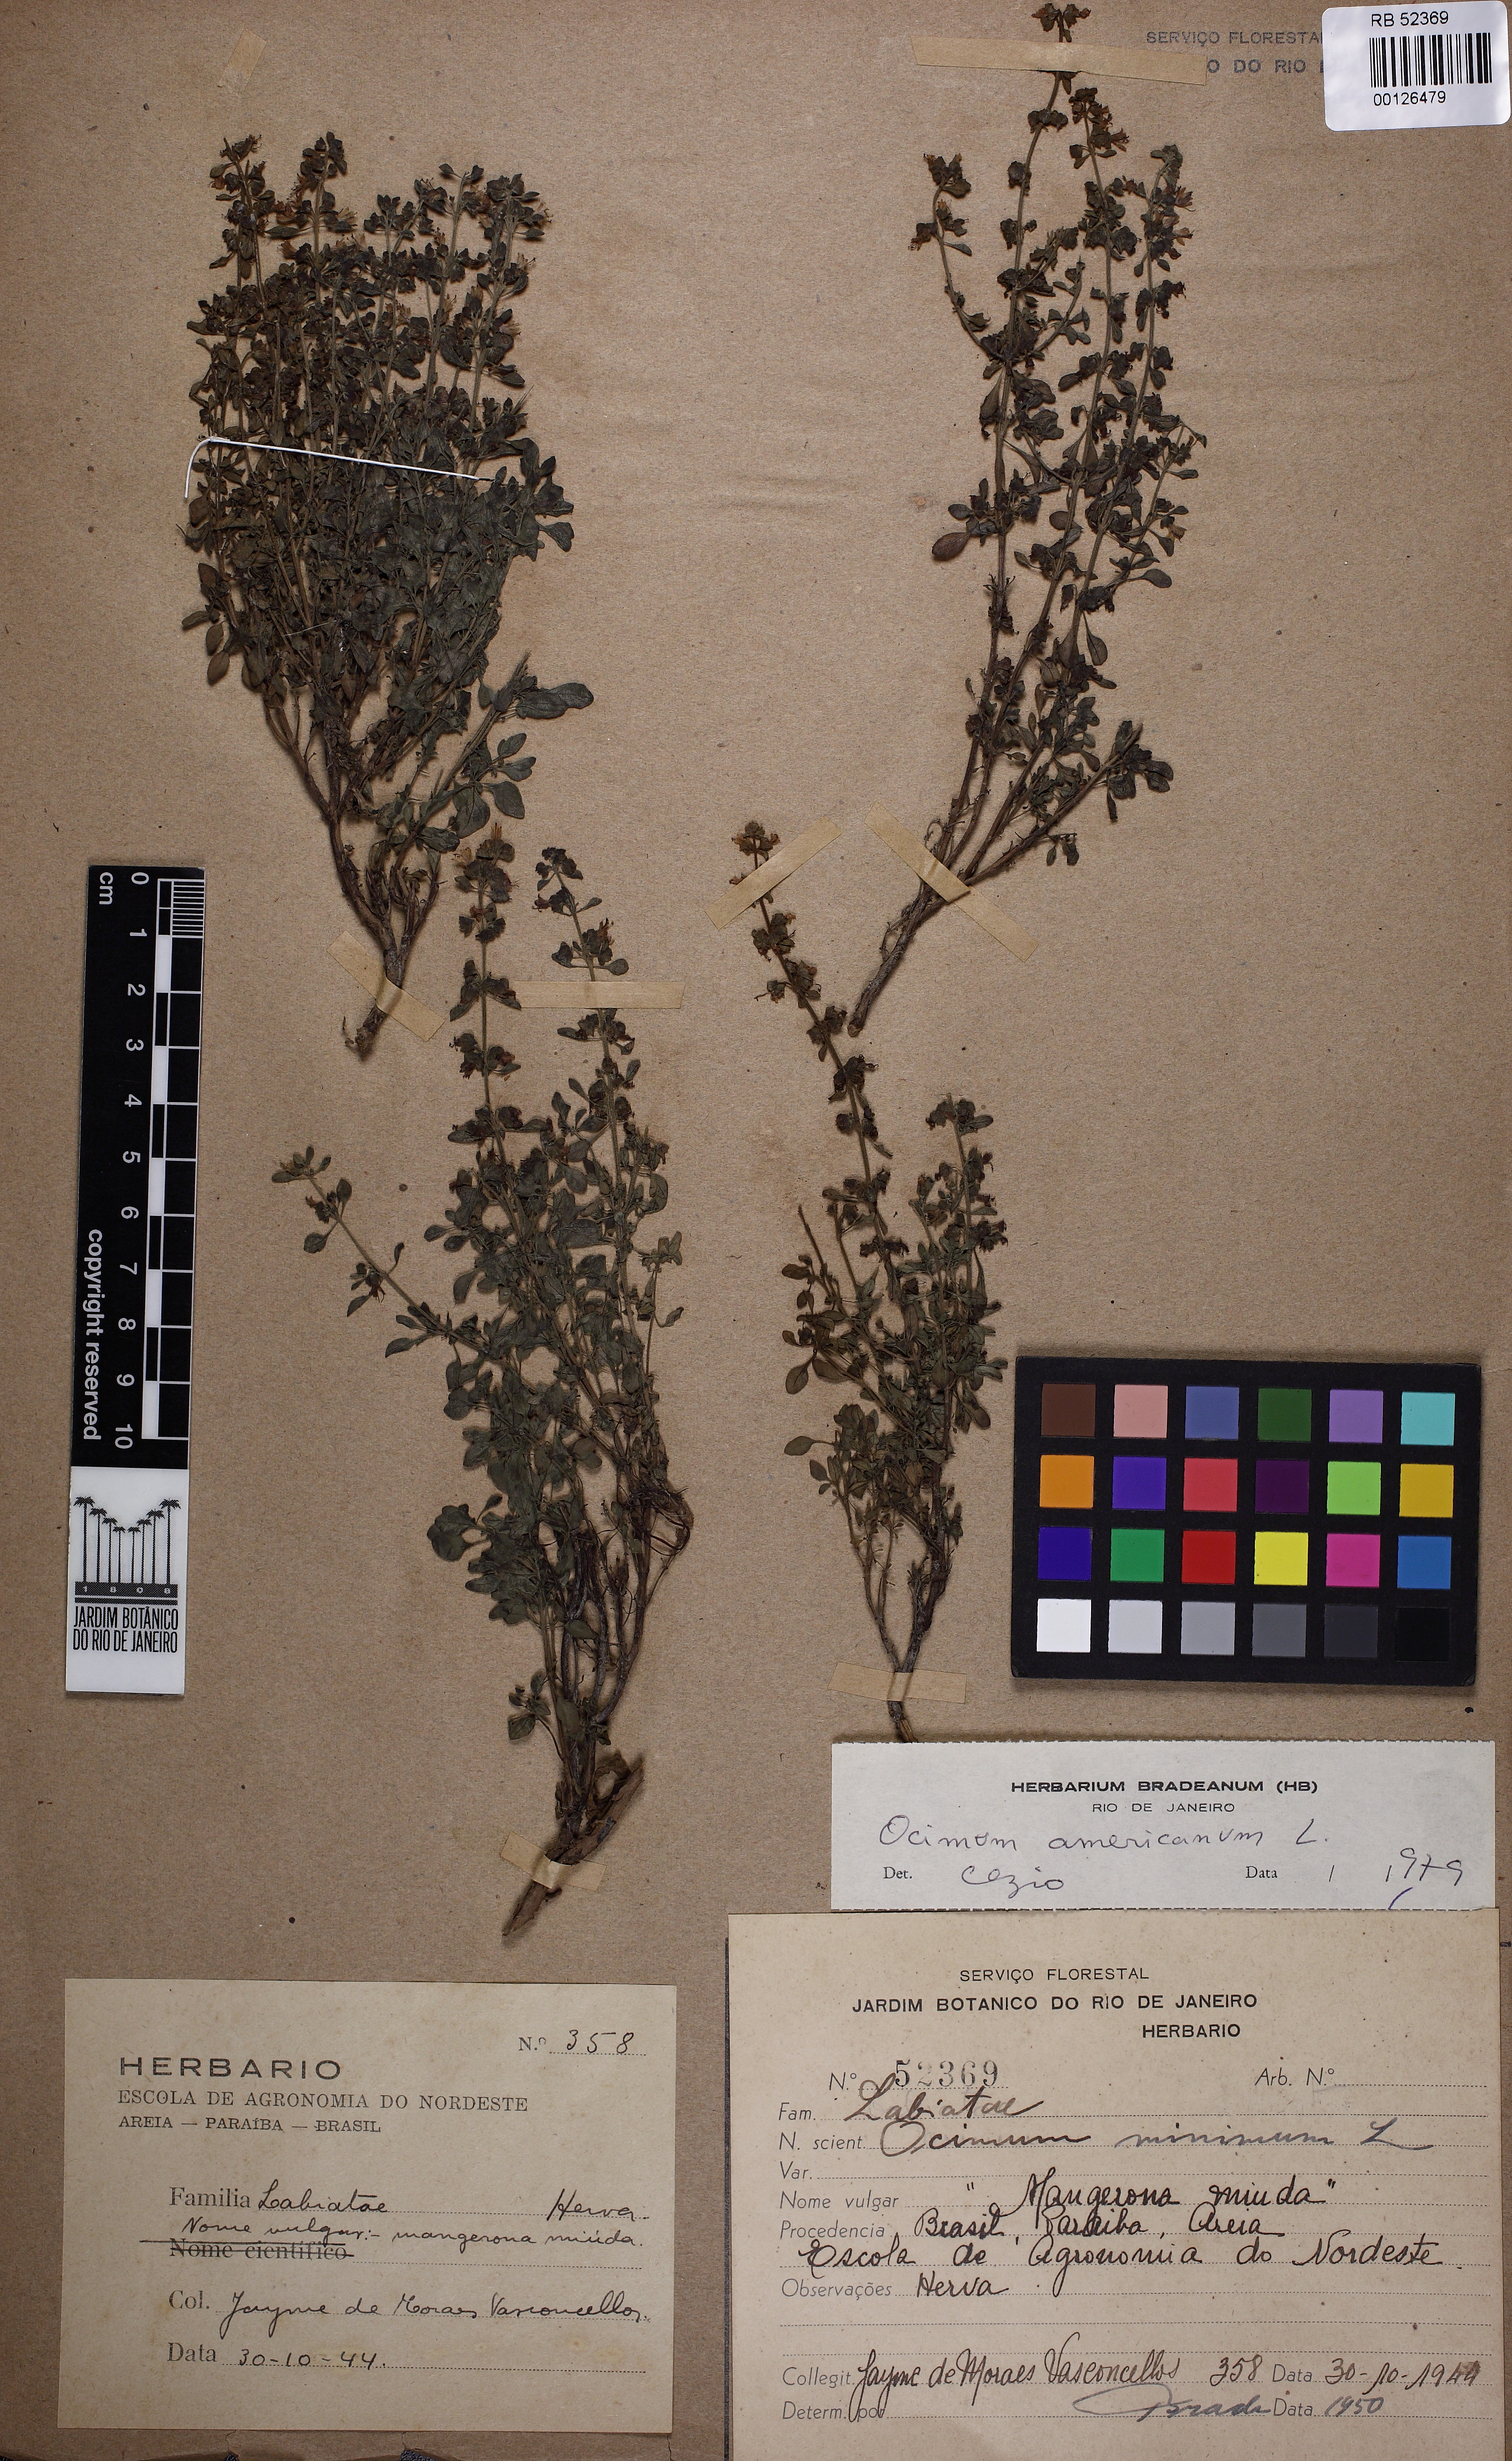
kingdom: Plantae
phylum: Tracheophyta
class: Magnoliopsida
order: Lamiales
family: Lamiaceae
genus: Ocimum
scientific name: Ocimum americanum
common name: American basil
